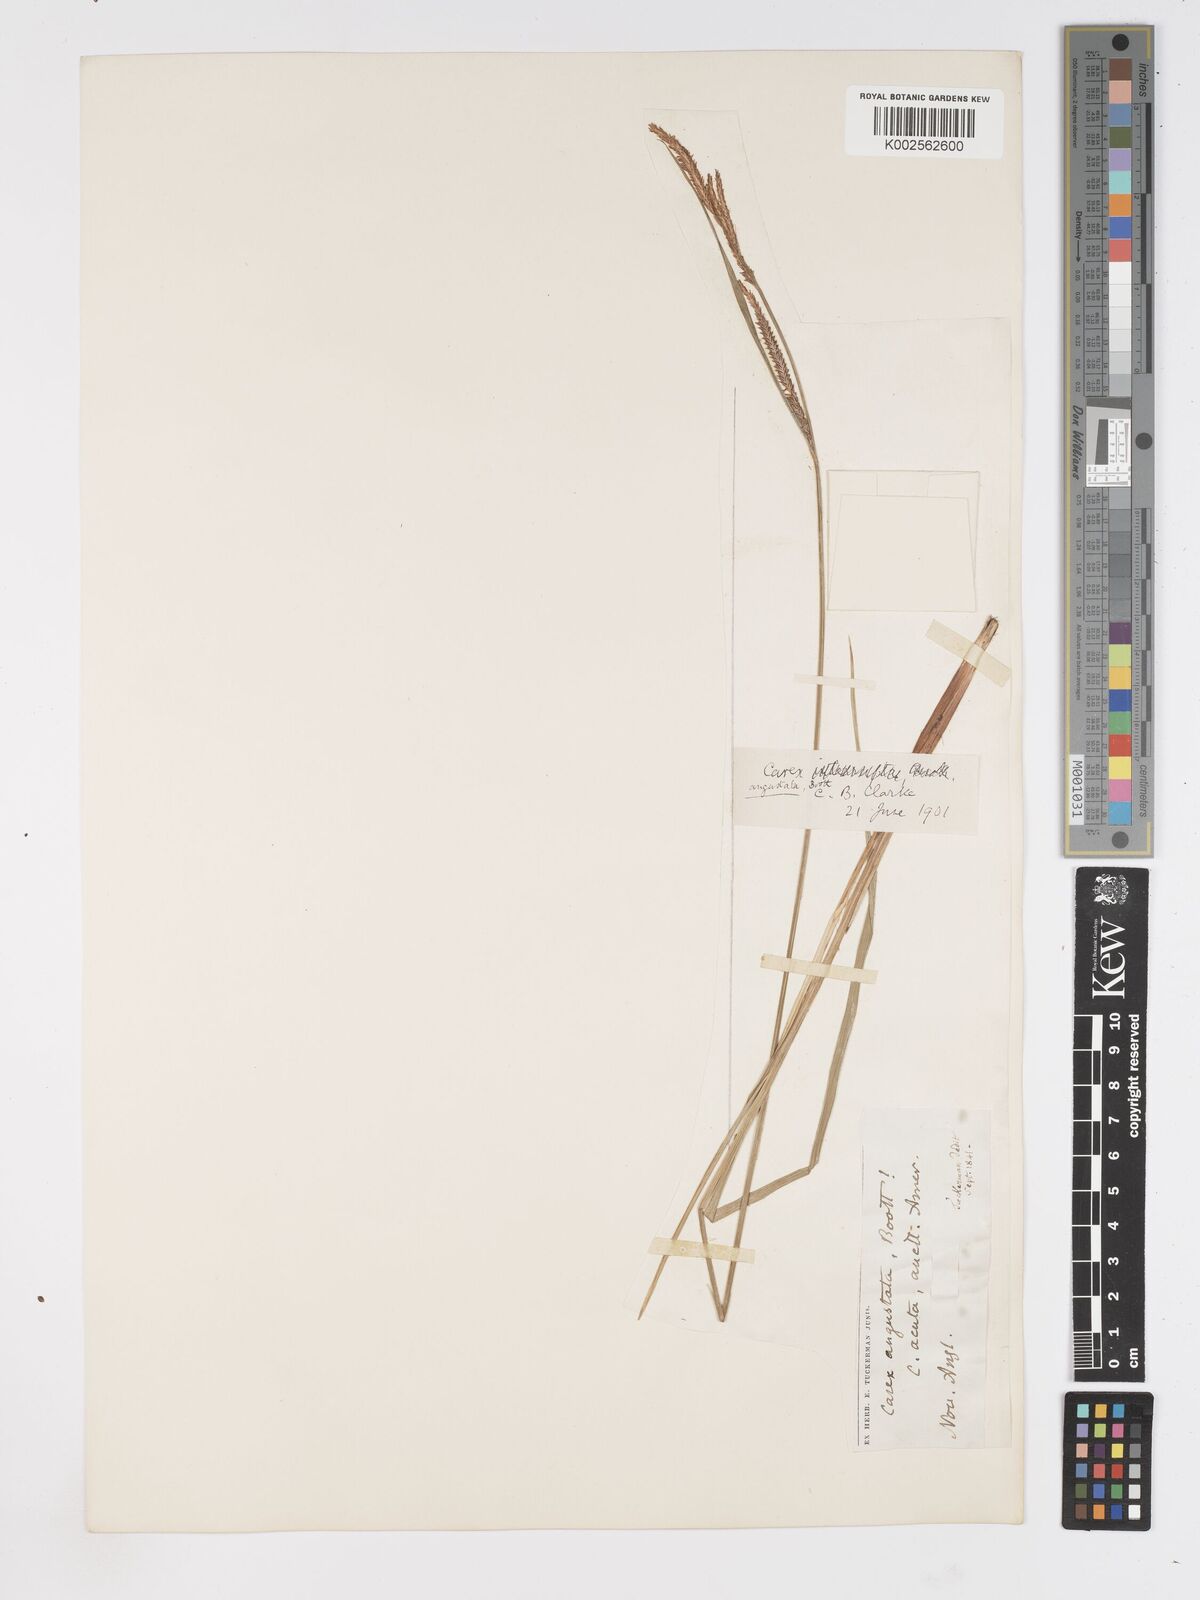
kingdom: Plantae
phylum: Tracheophyta
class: Liliopsida
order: Poales
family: Cyperaceae
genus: Carex
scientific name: Carex stricta
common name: Hummock sedge
